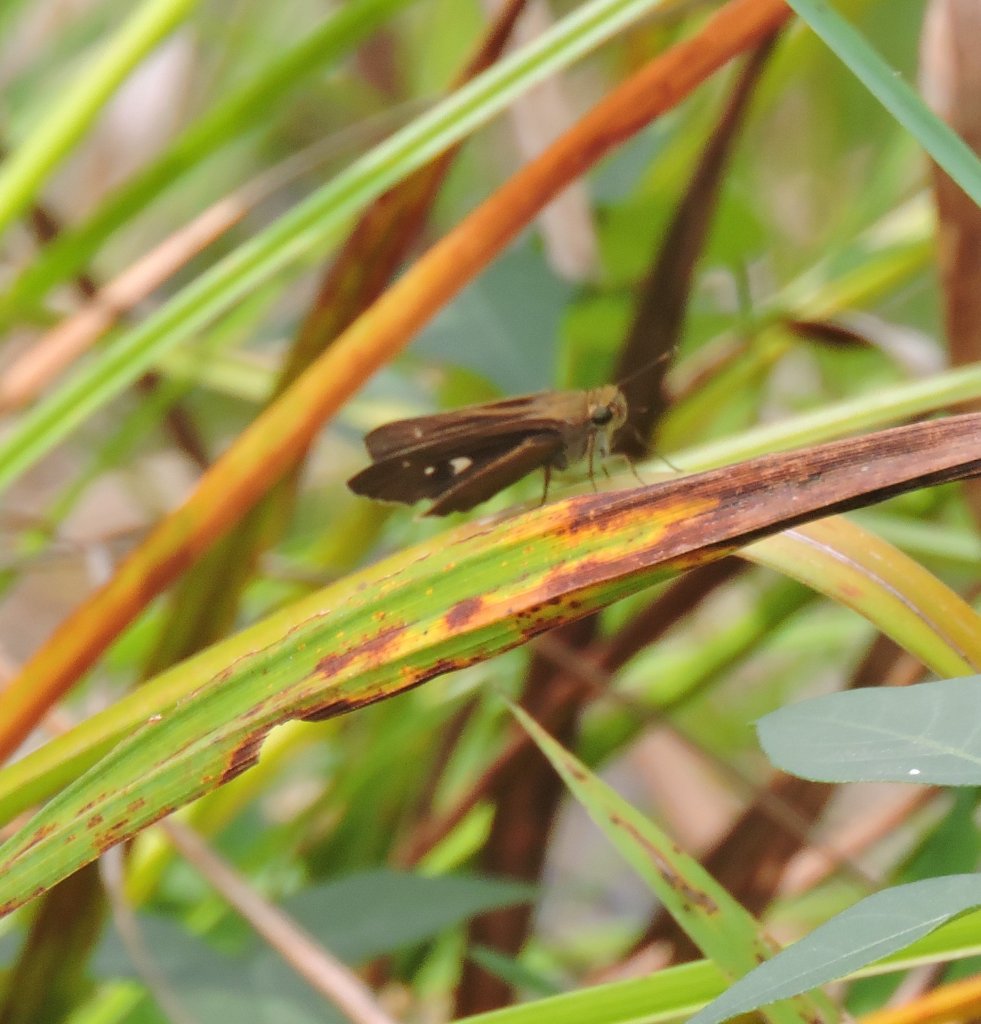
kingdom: Animalia
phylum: Arthropoda
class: Insecta
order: Lepidoptera
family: Hesperiidae
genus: Panoquina
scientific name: Panoquina ocola
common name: Ocola Skipper
